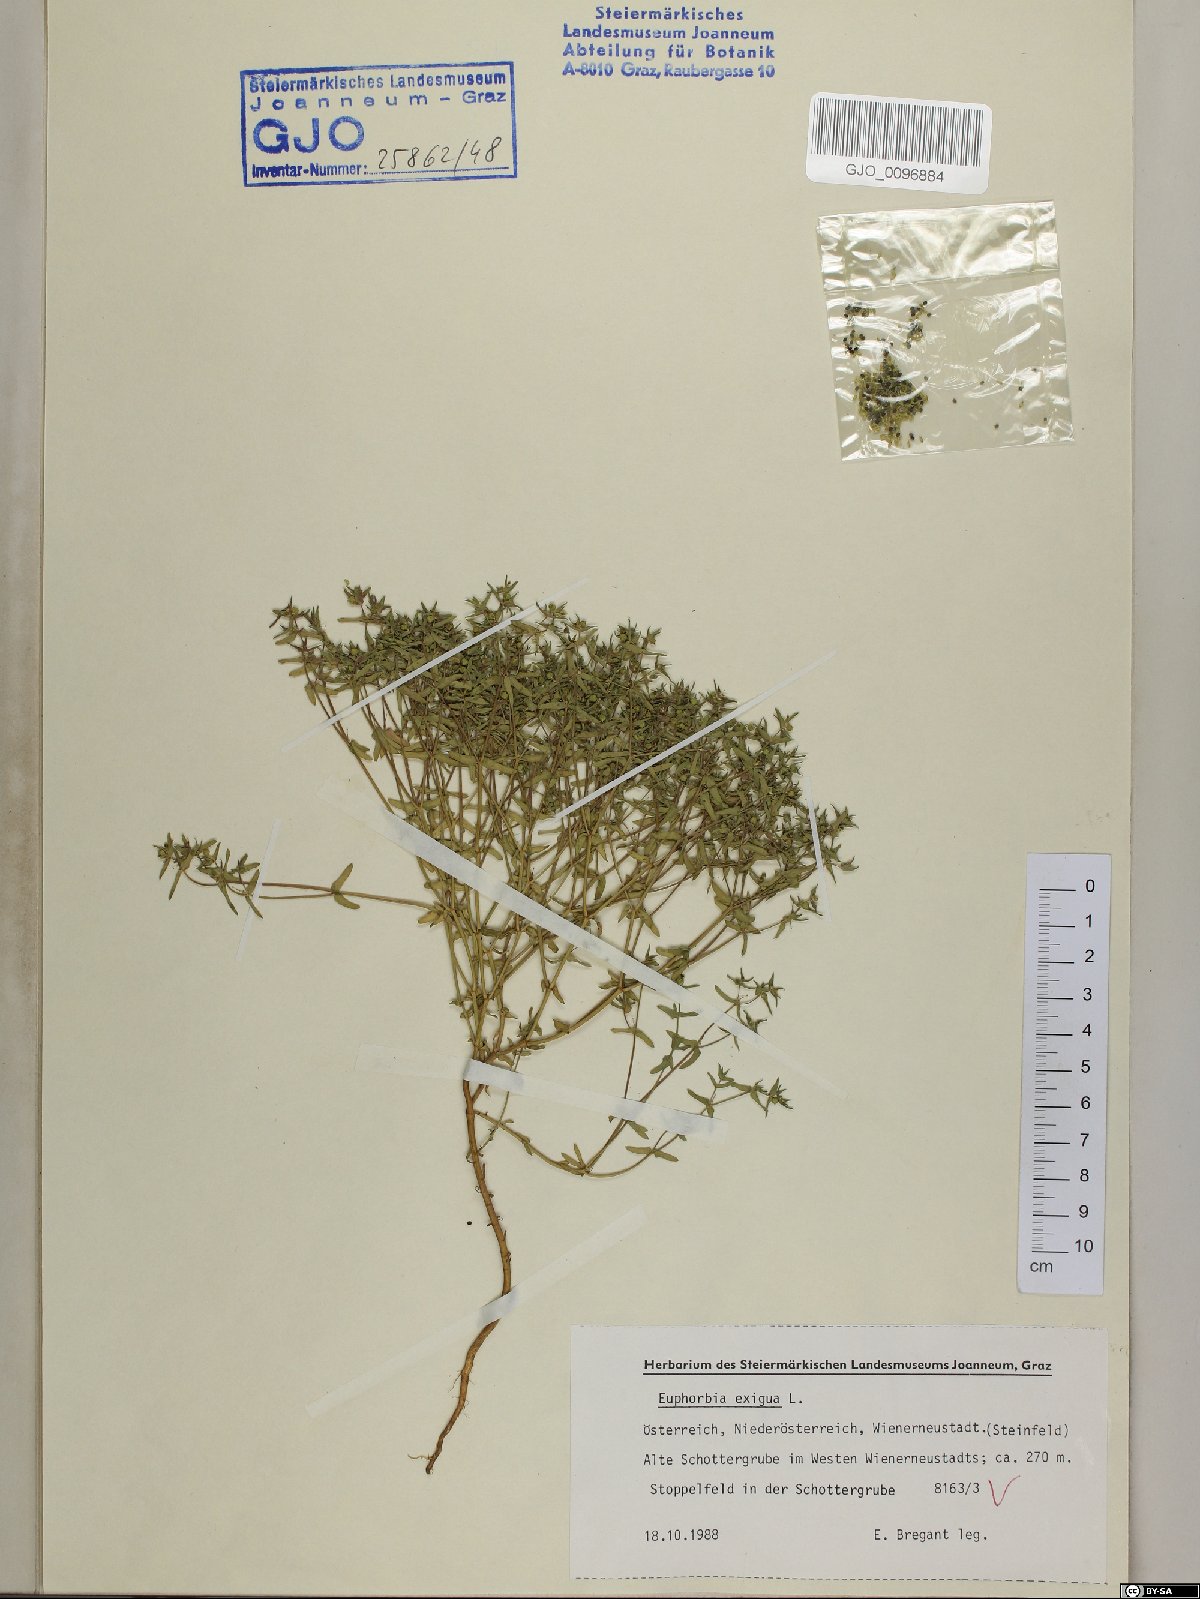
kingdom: Plantae
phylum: Tracheophyta
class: Magnoliopsida
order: Malpighiales
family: Euphorbiaceae
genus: Euphorbia
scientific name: Euphorbia exigua
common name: Dwarf spurge
